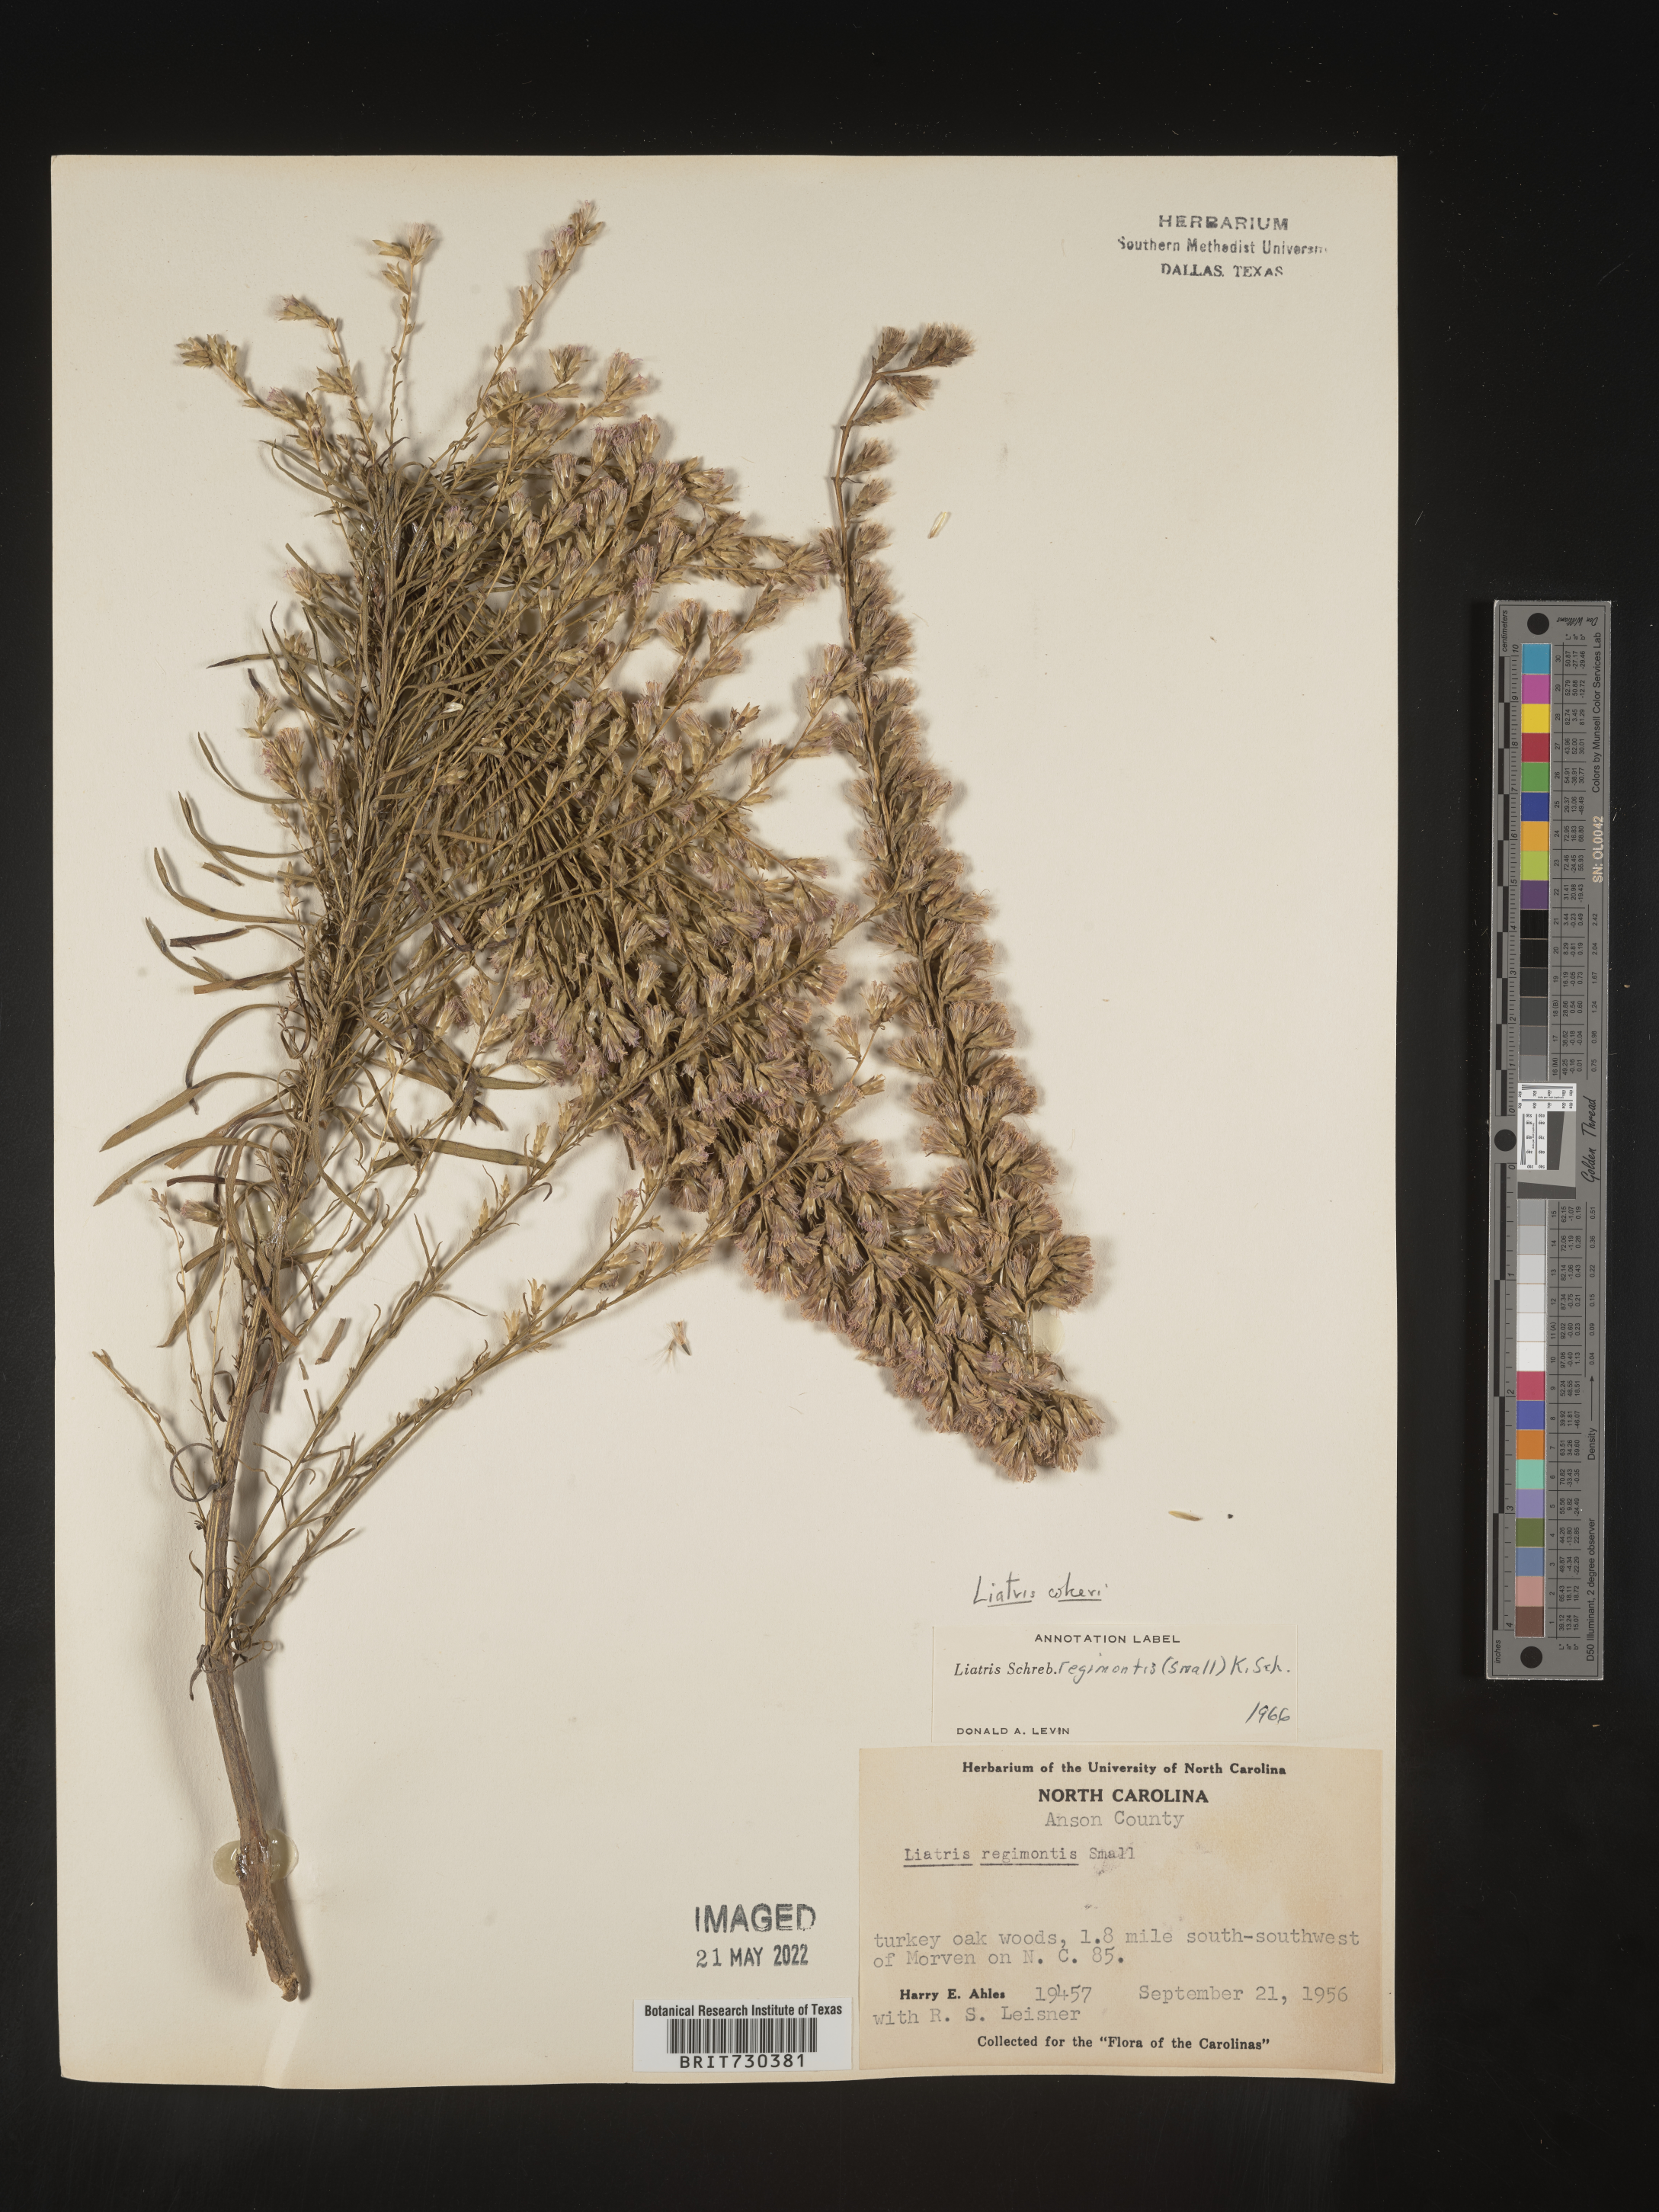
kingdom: Plantae
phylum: Tracheophyta
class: Magnoliopsida
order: Asterales
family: Asteraceae
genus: Liatris
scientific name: Liatris cokeri
